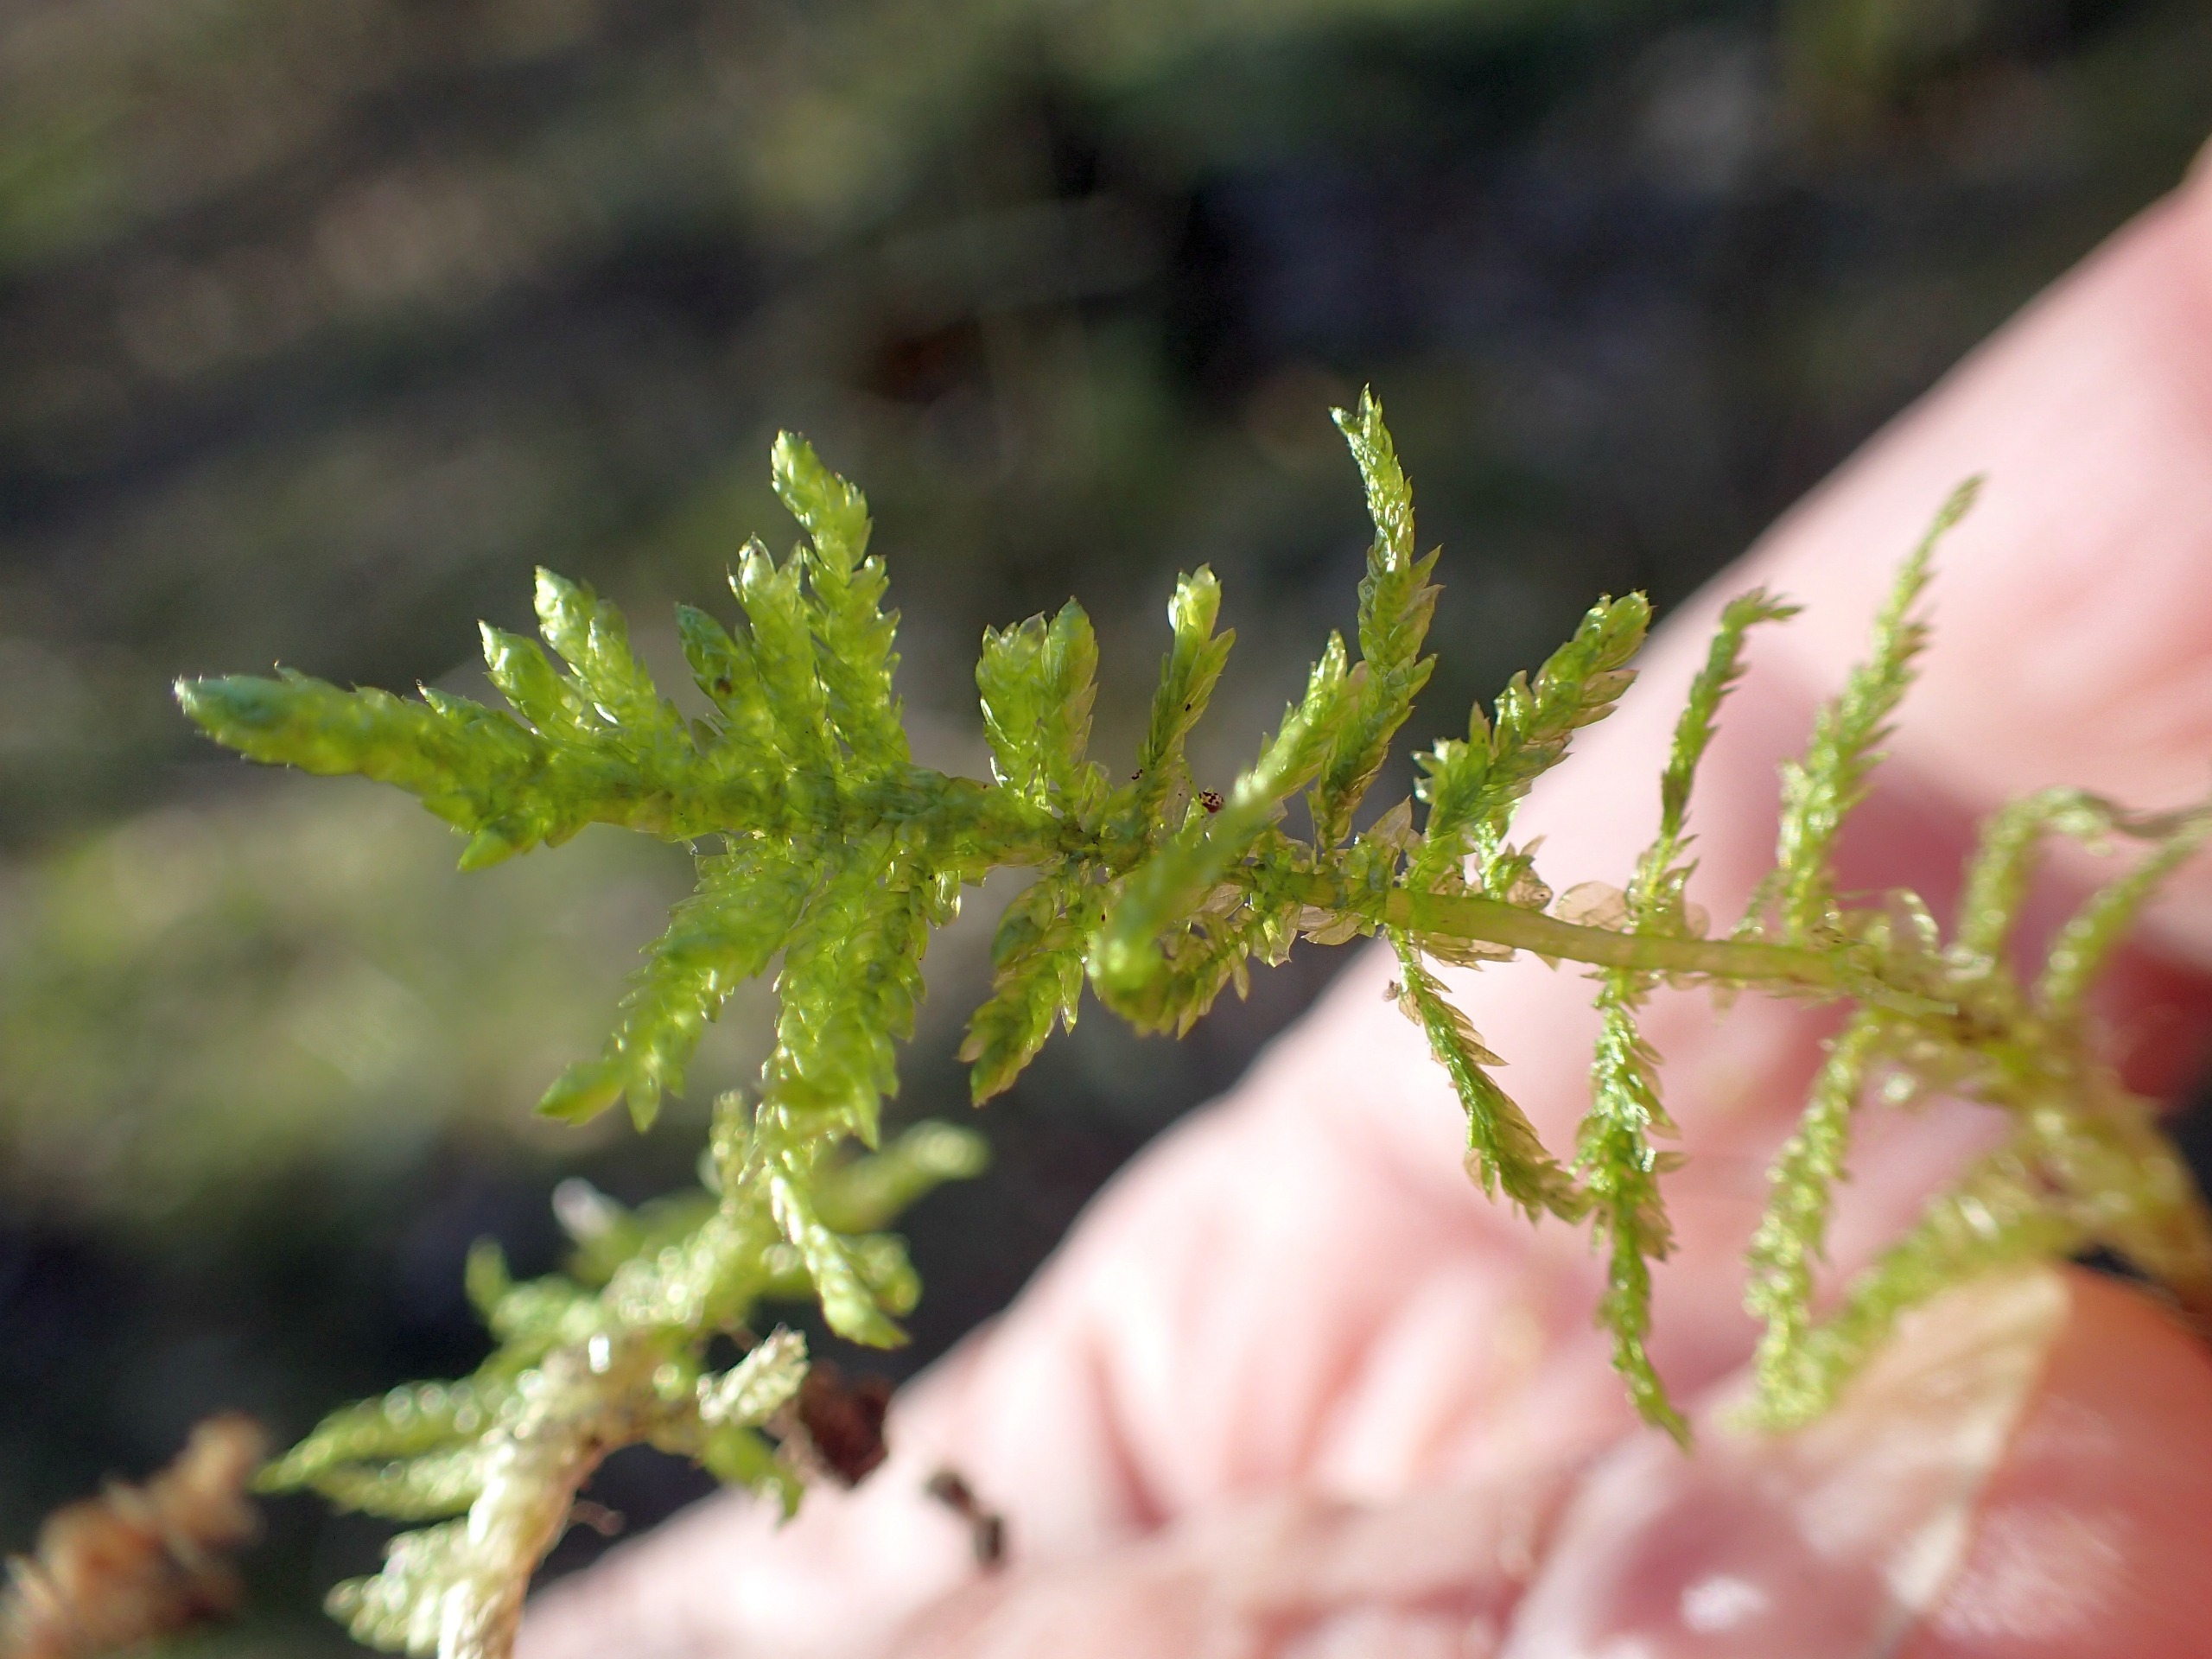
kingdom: Plantae
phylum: Bryophyta
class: Bryopsida
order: Hypnales
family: Brachytheciaceae
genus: Pseudoscleropodium
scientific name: Pseudoscleropodium purum
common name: Hulbladet fedtmos
